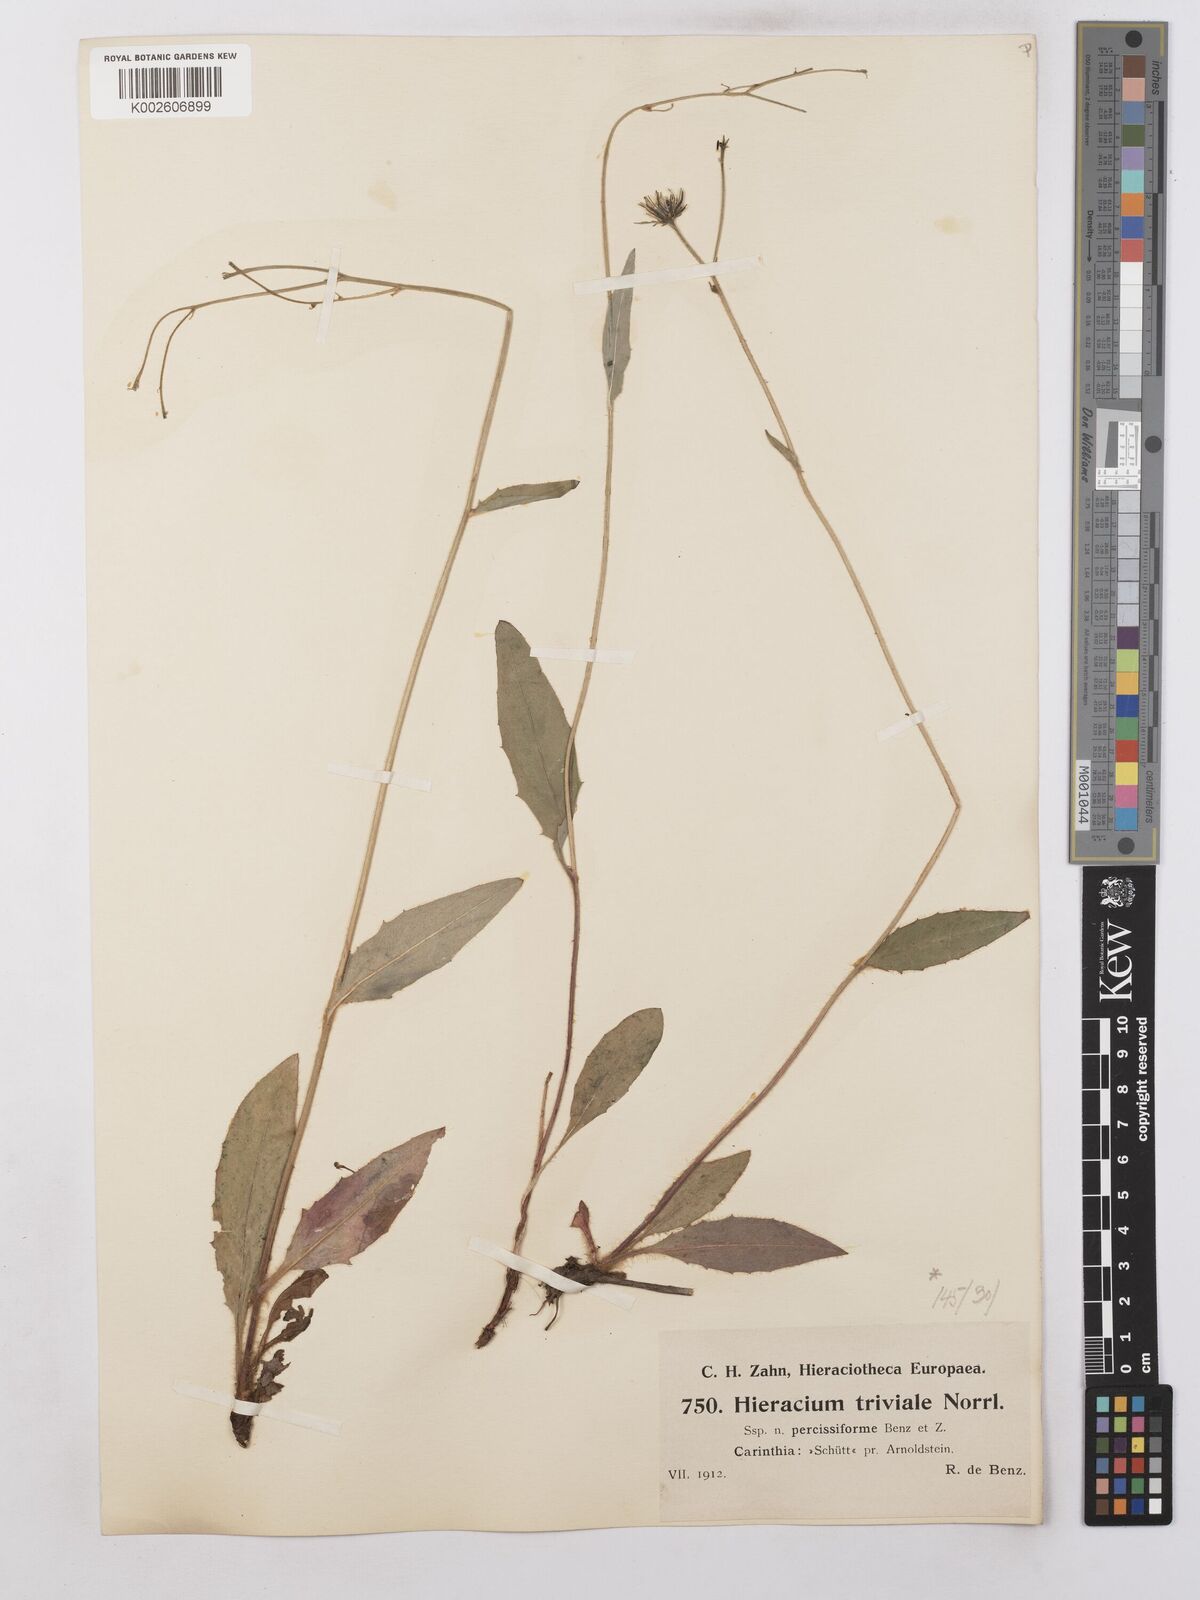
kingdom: Plantae
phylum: Tracheophyta
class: Magnoliopsida
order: Asterales
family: Asteraceae
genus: Hieracium
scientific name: Hieracium levicaule
